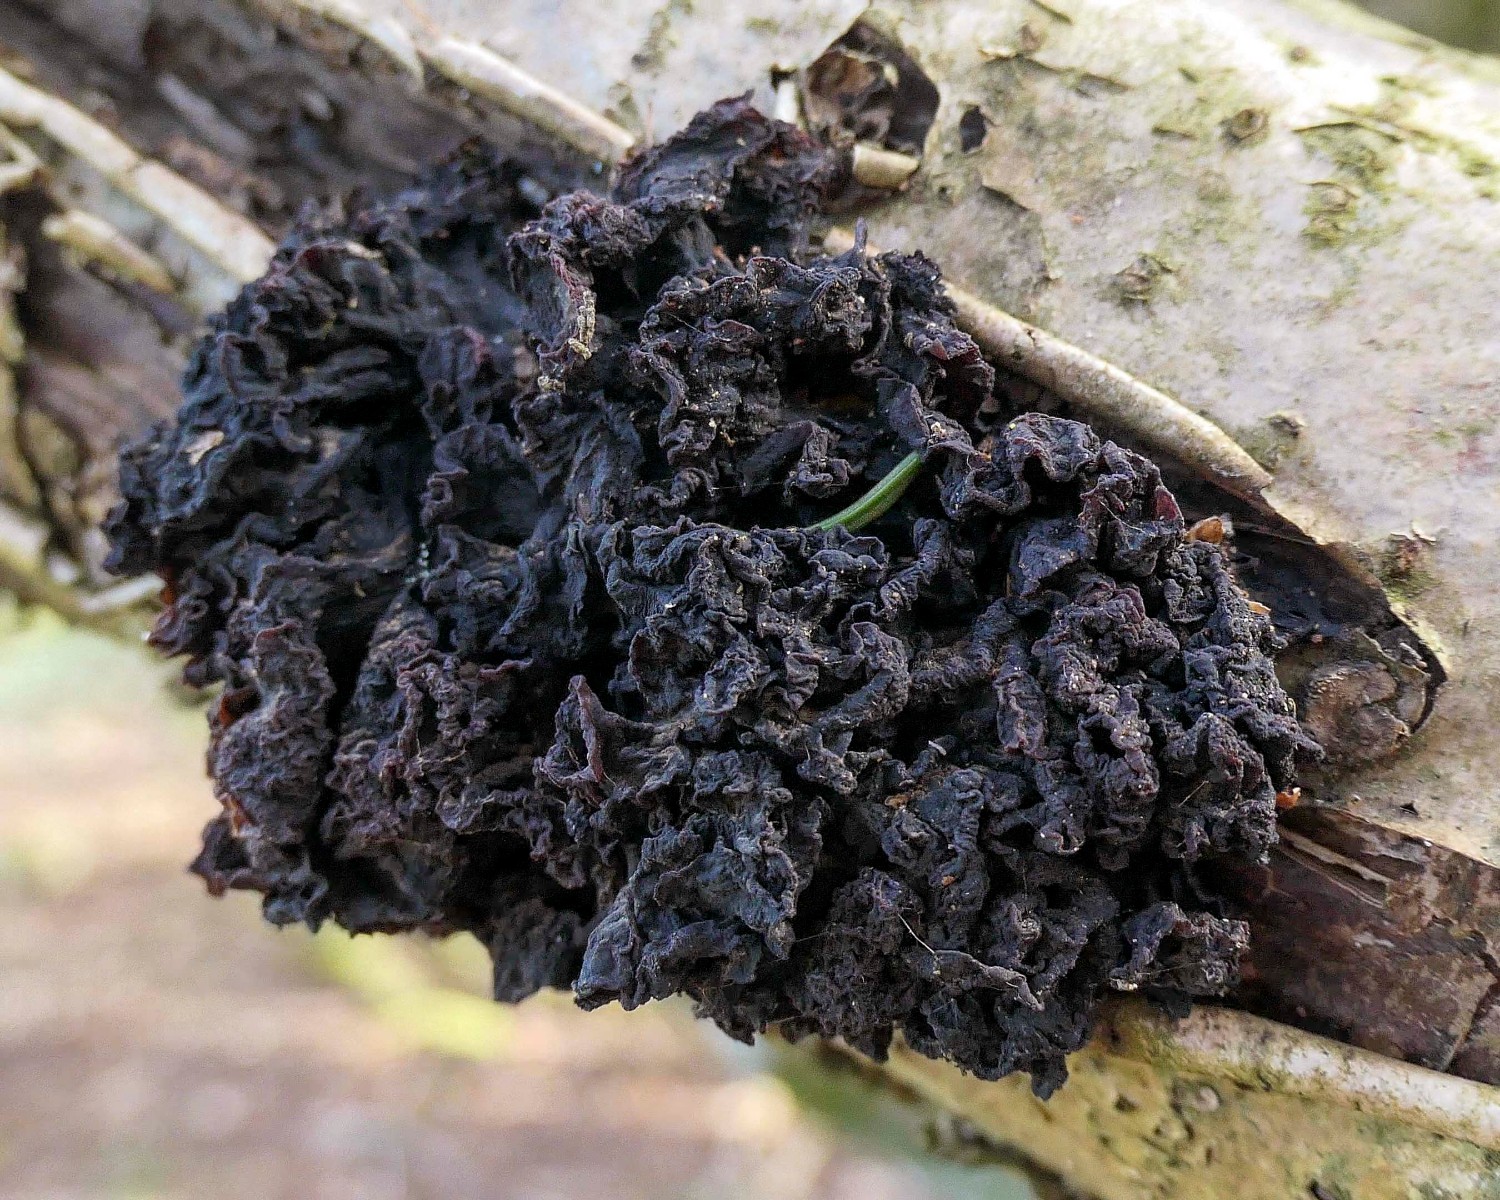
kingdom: Fungi
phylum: Basidiomycota
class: Tremellomycetes
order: Tremellales
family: Tremellaceae
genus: Phaeotremella
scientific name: Phaeotremella frondosa
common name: kæmpe-bævresvamp
